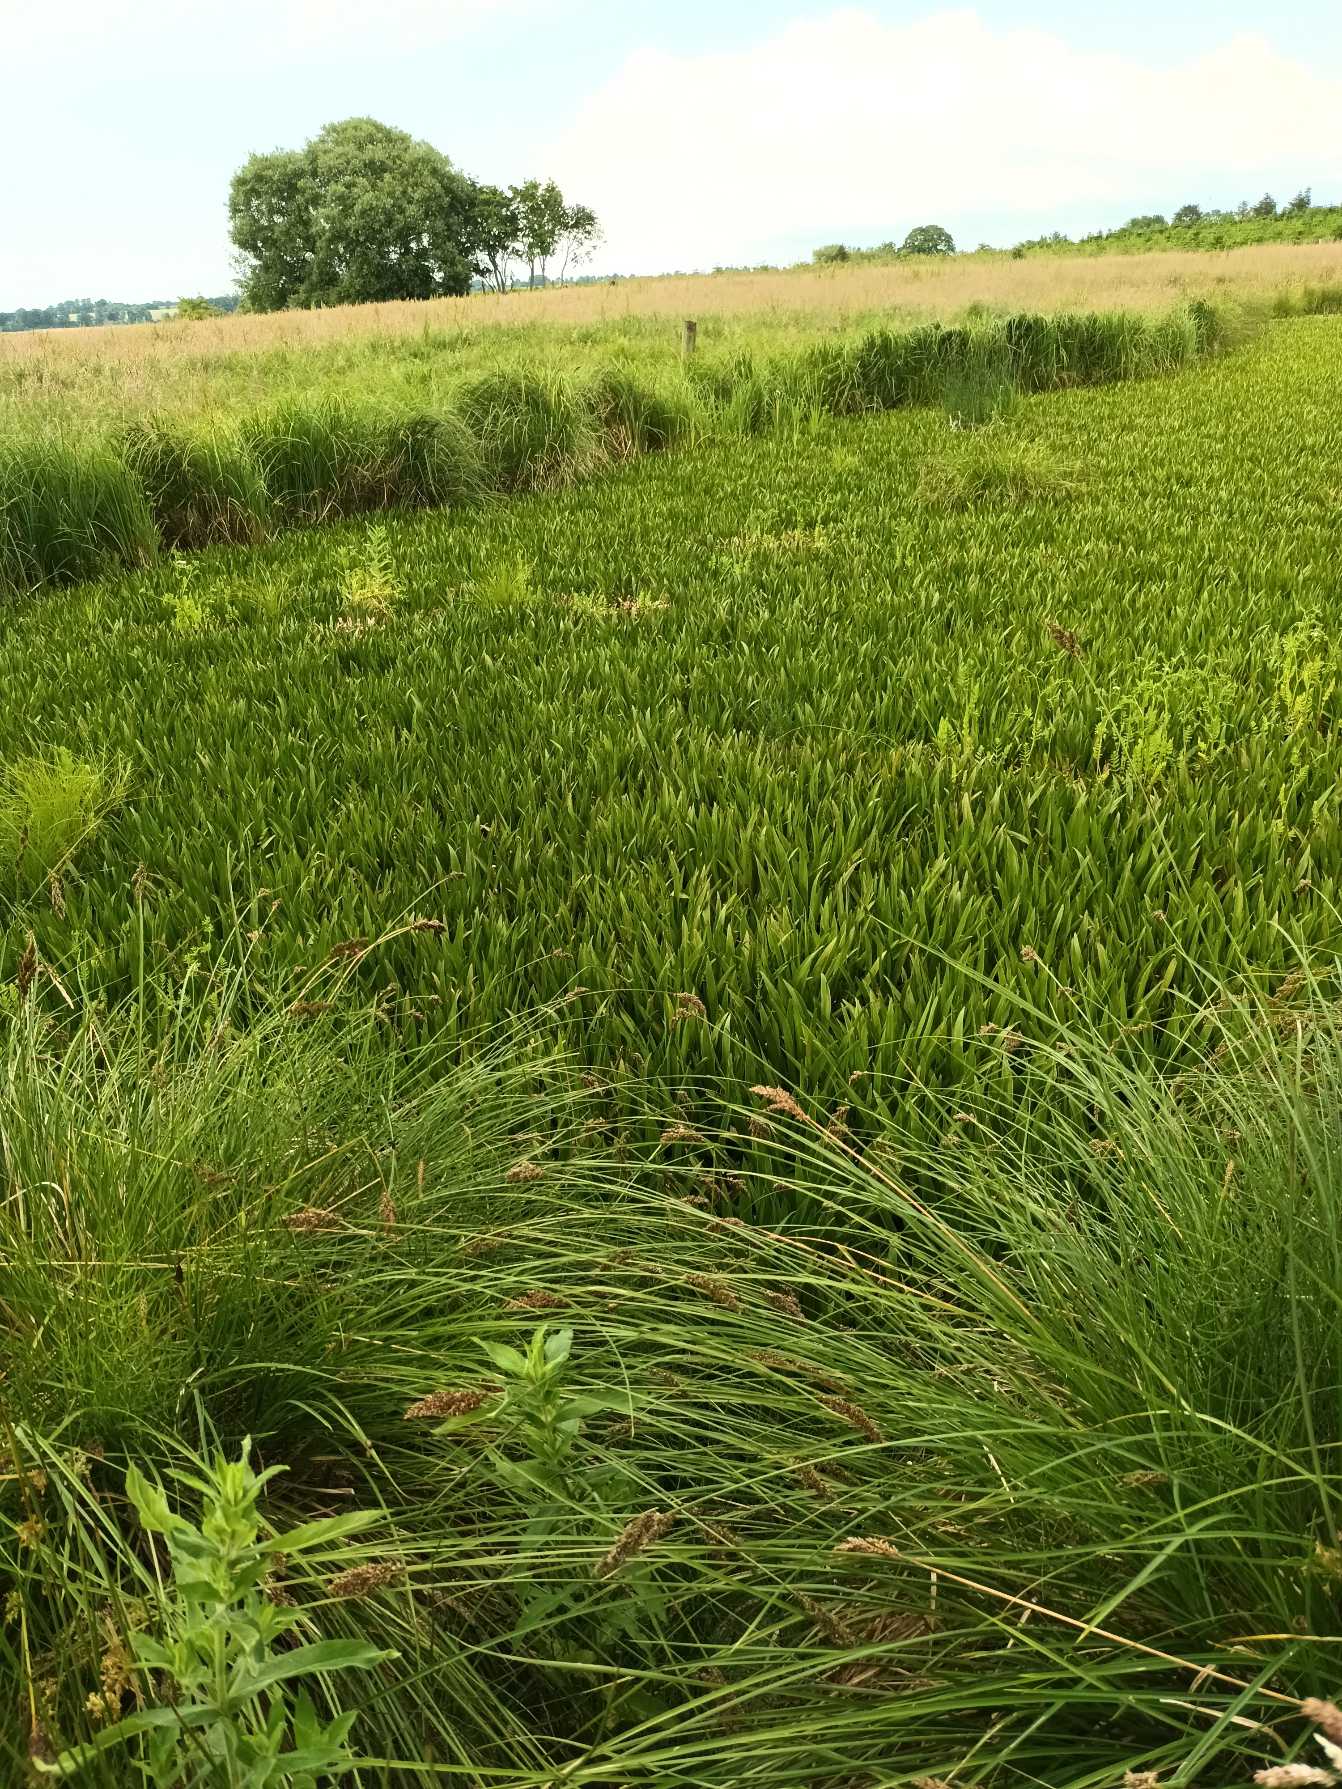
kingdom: Plantae
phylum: Tracheophyta
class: Liliopsida
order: Alismatales
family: Hydrocharitaceae
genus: Stratiotes
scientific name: Stratiotes aloides
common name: Krebseklo
